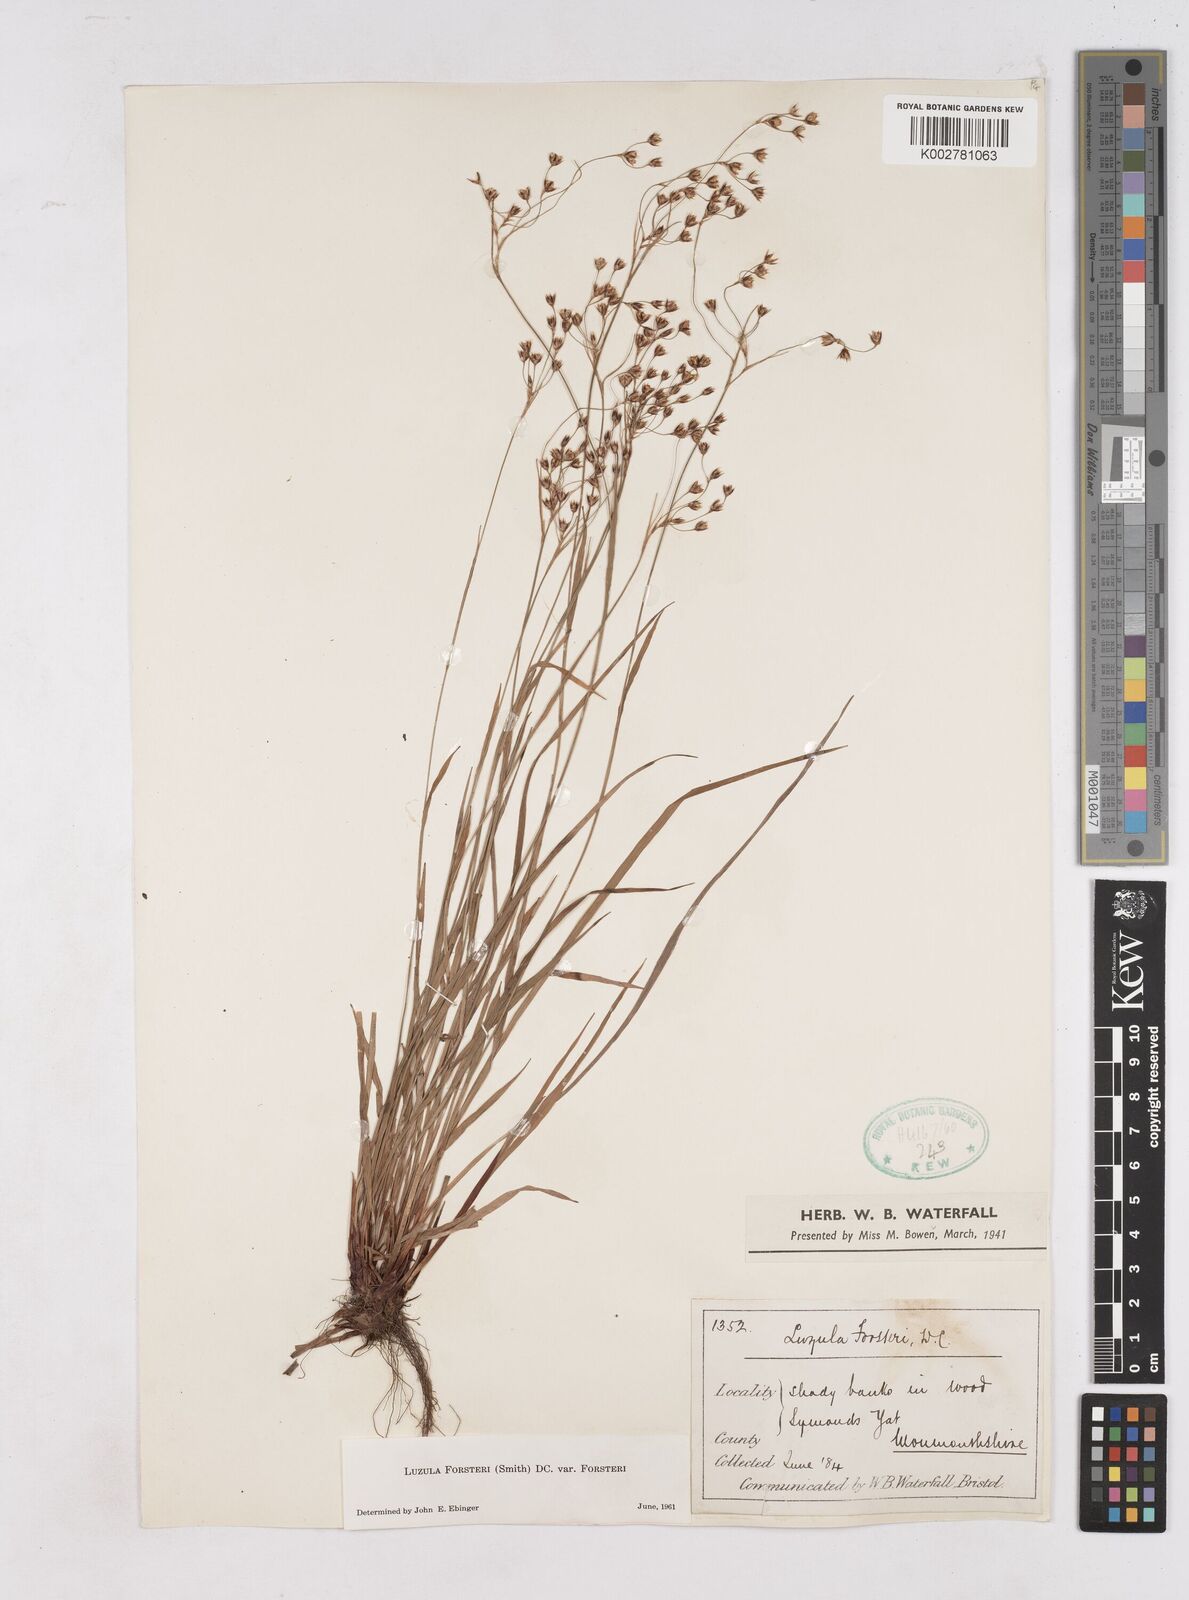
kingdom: Plantae
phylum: Tracheophyta
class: Liliopsida
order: Poales
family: Juncaceae
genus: Luzula
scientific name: Luzula forsteri
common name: Southern wood-rush
